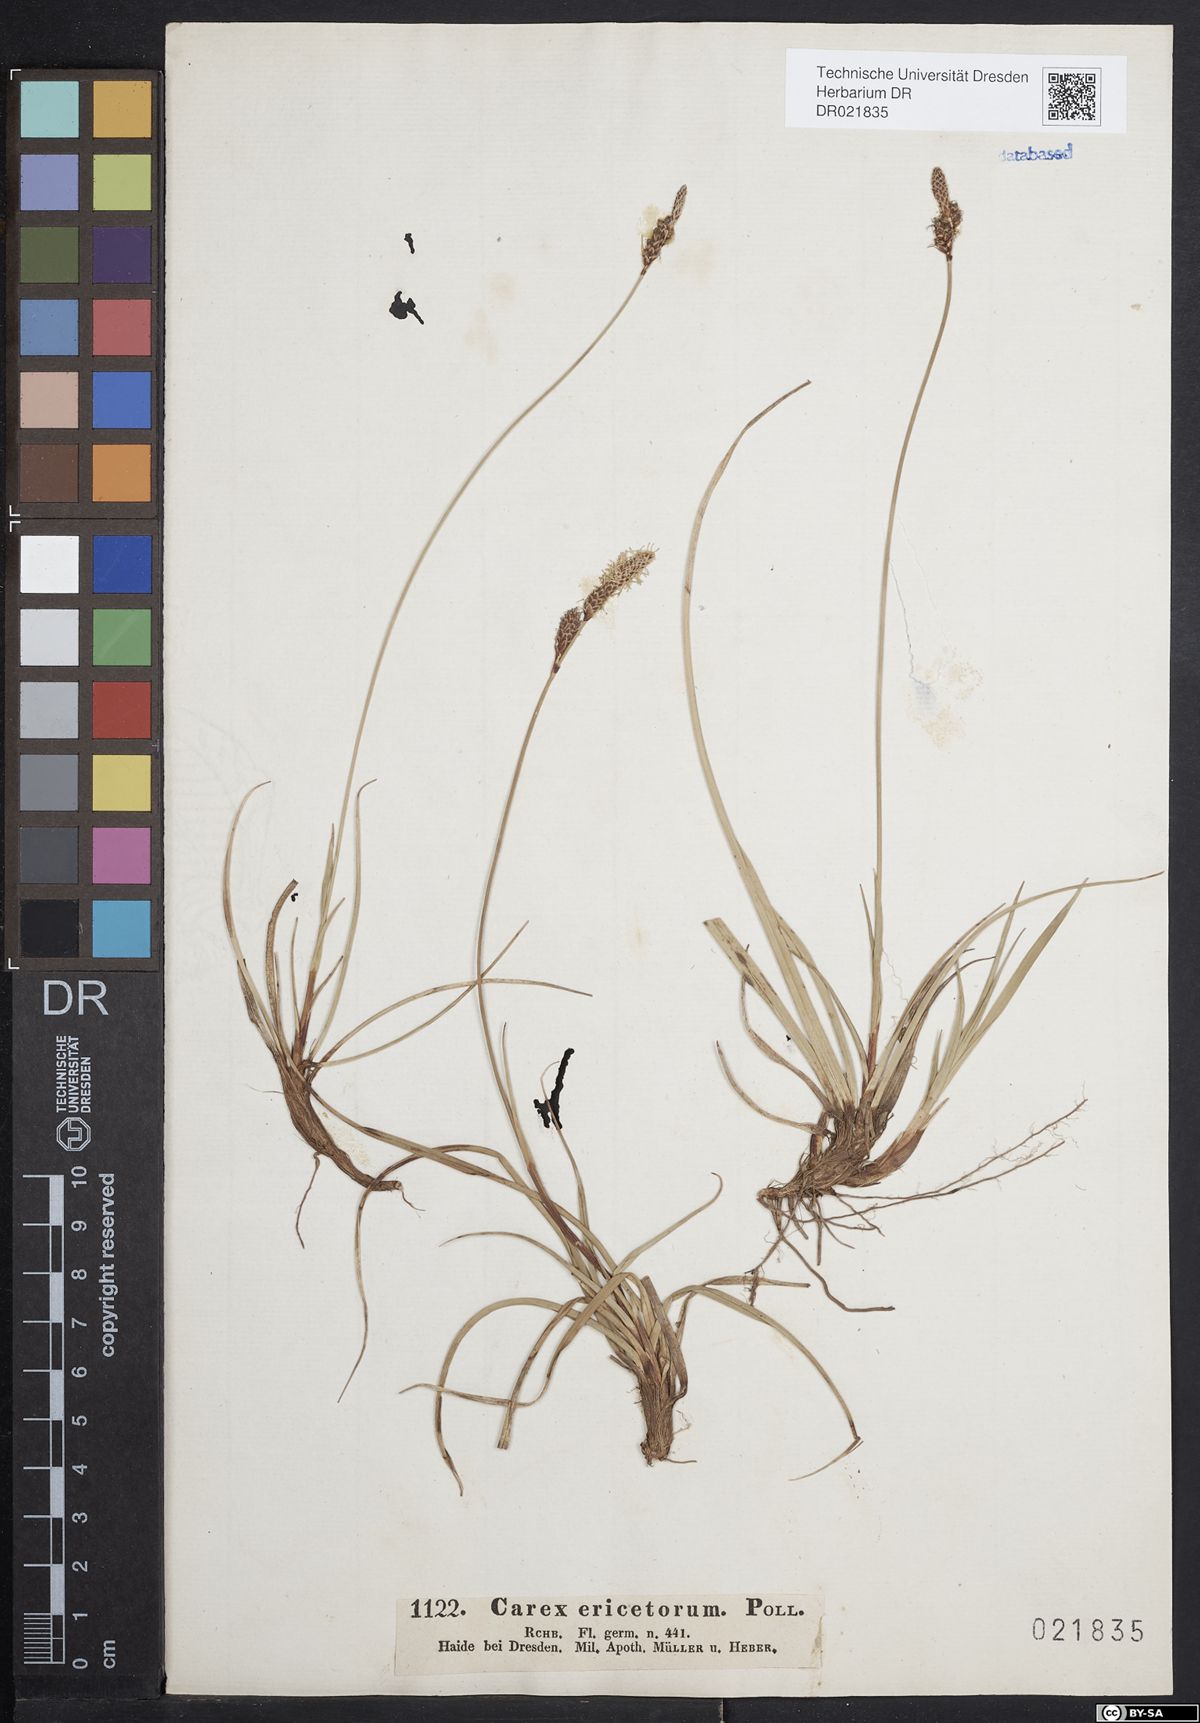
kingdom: Plantae
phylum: Tracheophyta
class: Liliopsida
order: Poales
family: Cyperaceae
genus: Carex
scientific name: Carex ericetorum
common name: Rare spring-sedge
